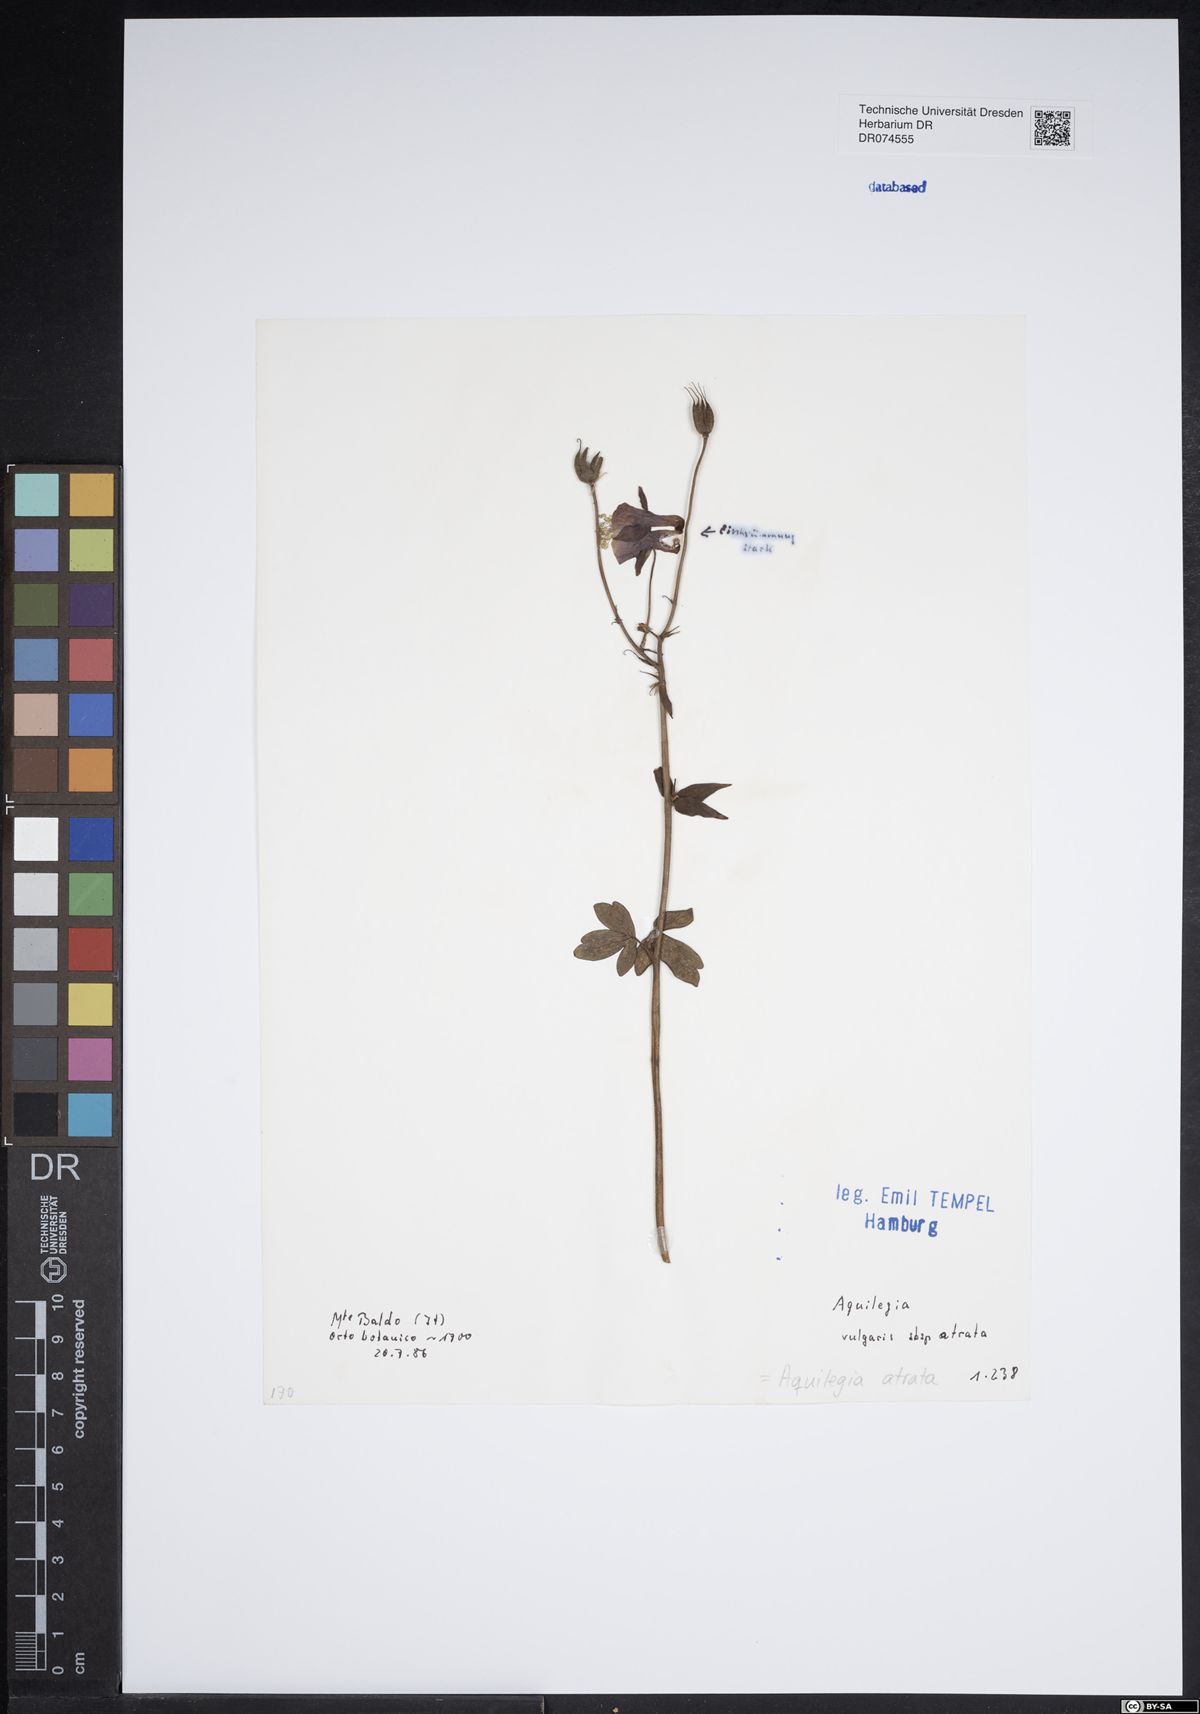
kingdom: Plantae
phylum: Tracheophyta
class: Magnoliopsida
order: Ranunculales
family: Ranunculaceae
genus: Aquilegia
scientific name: Aquilegia atrata
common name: Dark columbine
